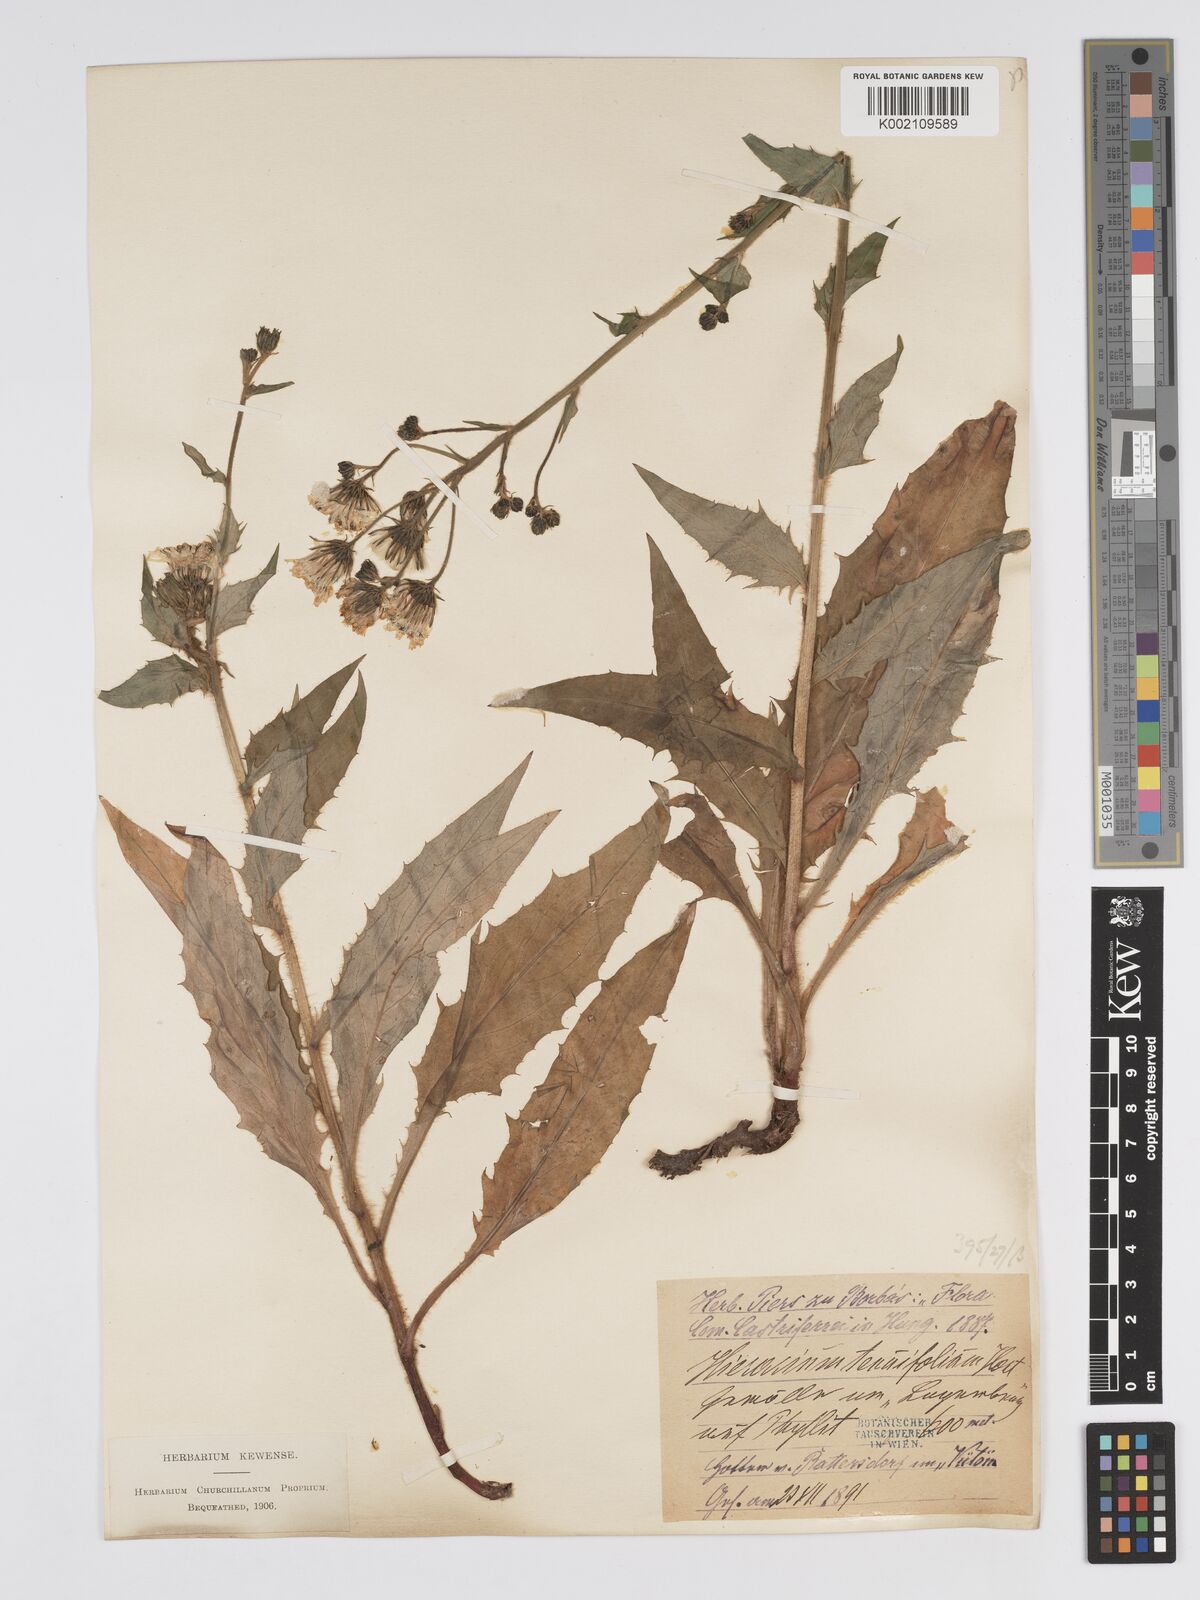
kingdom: Plantae
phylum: Tracheophyta
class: Magnoliopsida
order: Asterales
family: Asteraceae
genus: Hieracium
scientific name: Hieracium racemosum
